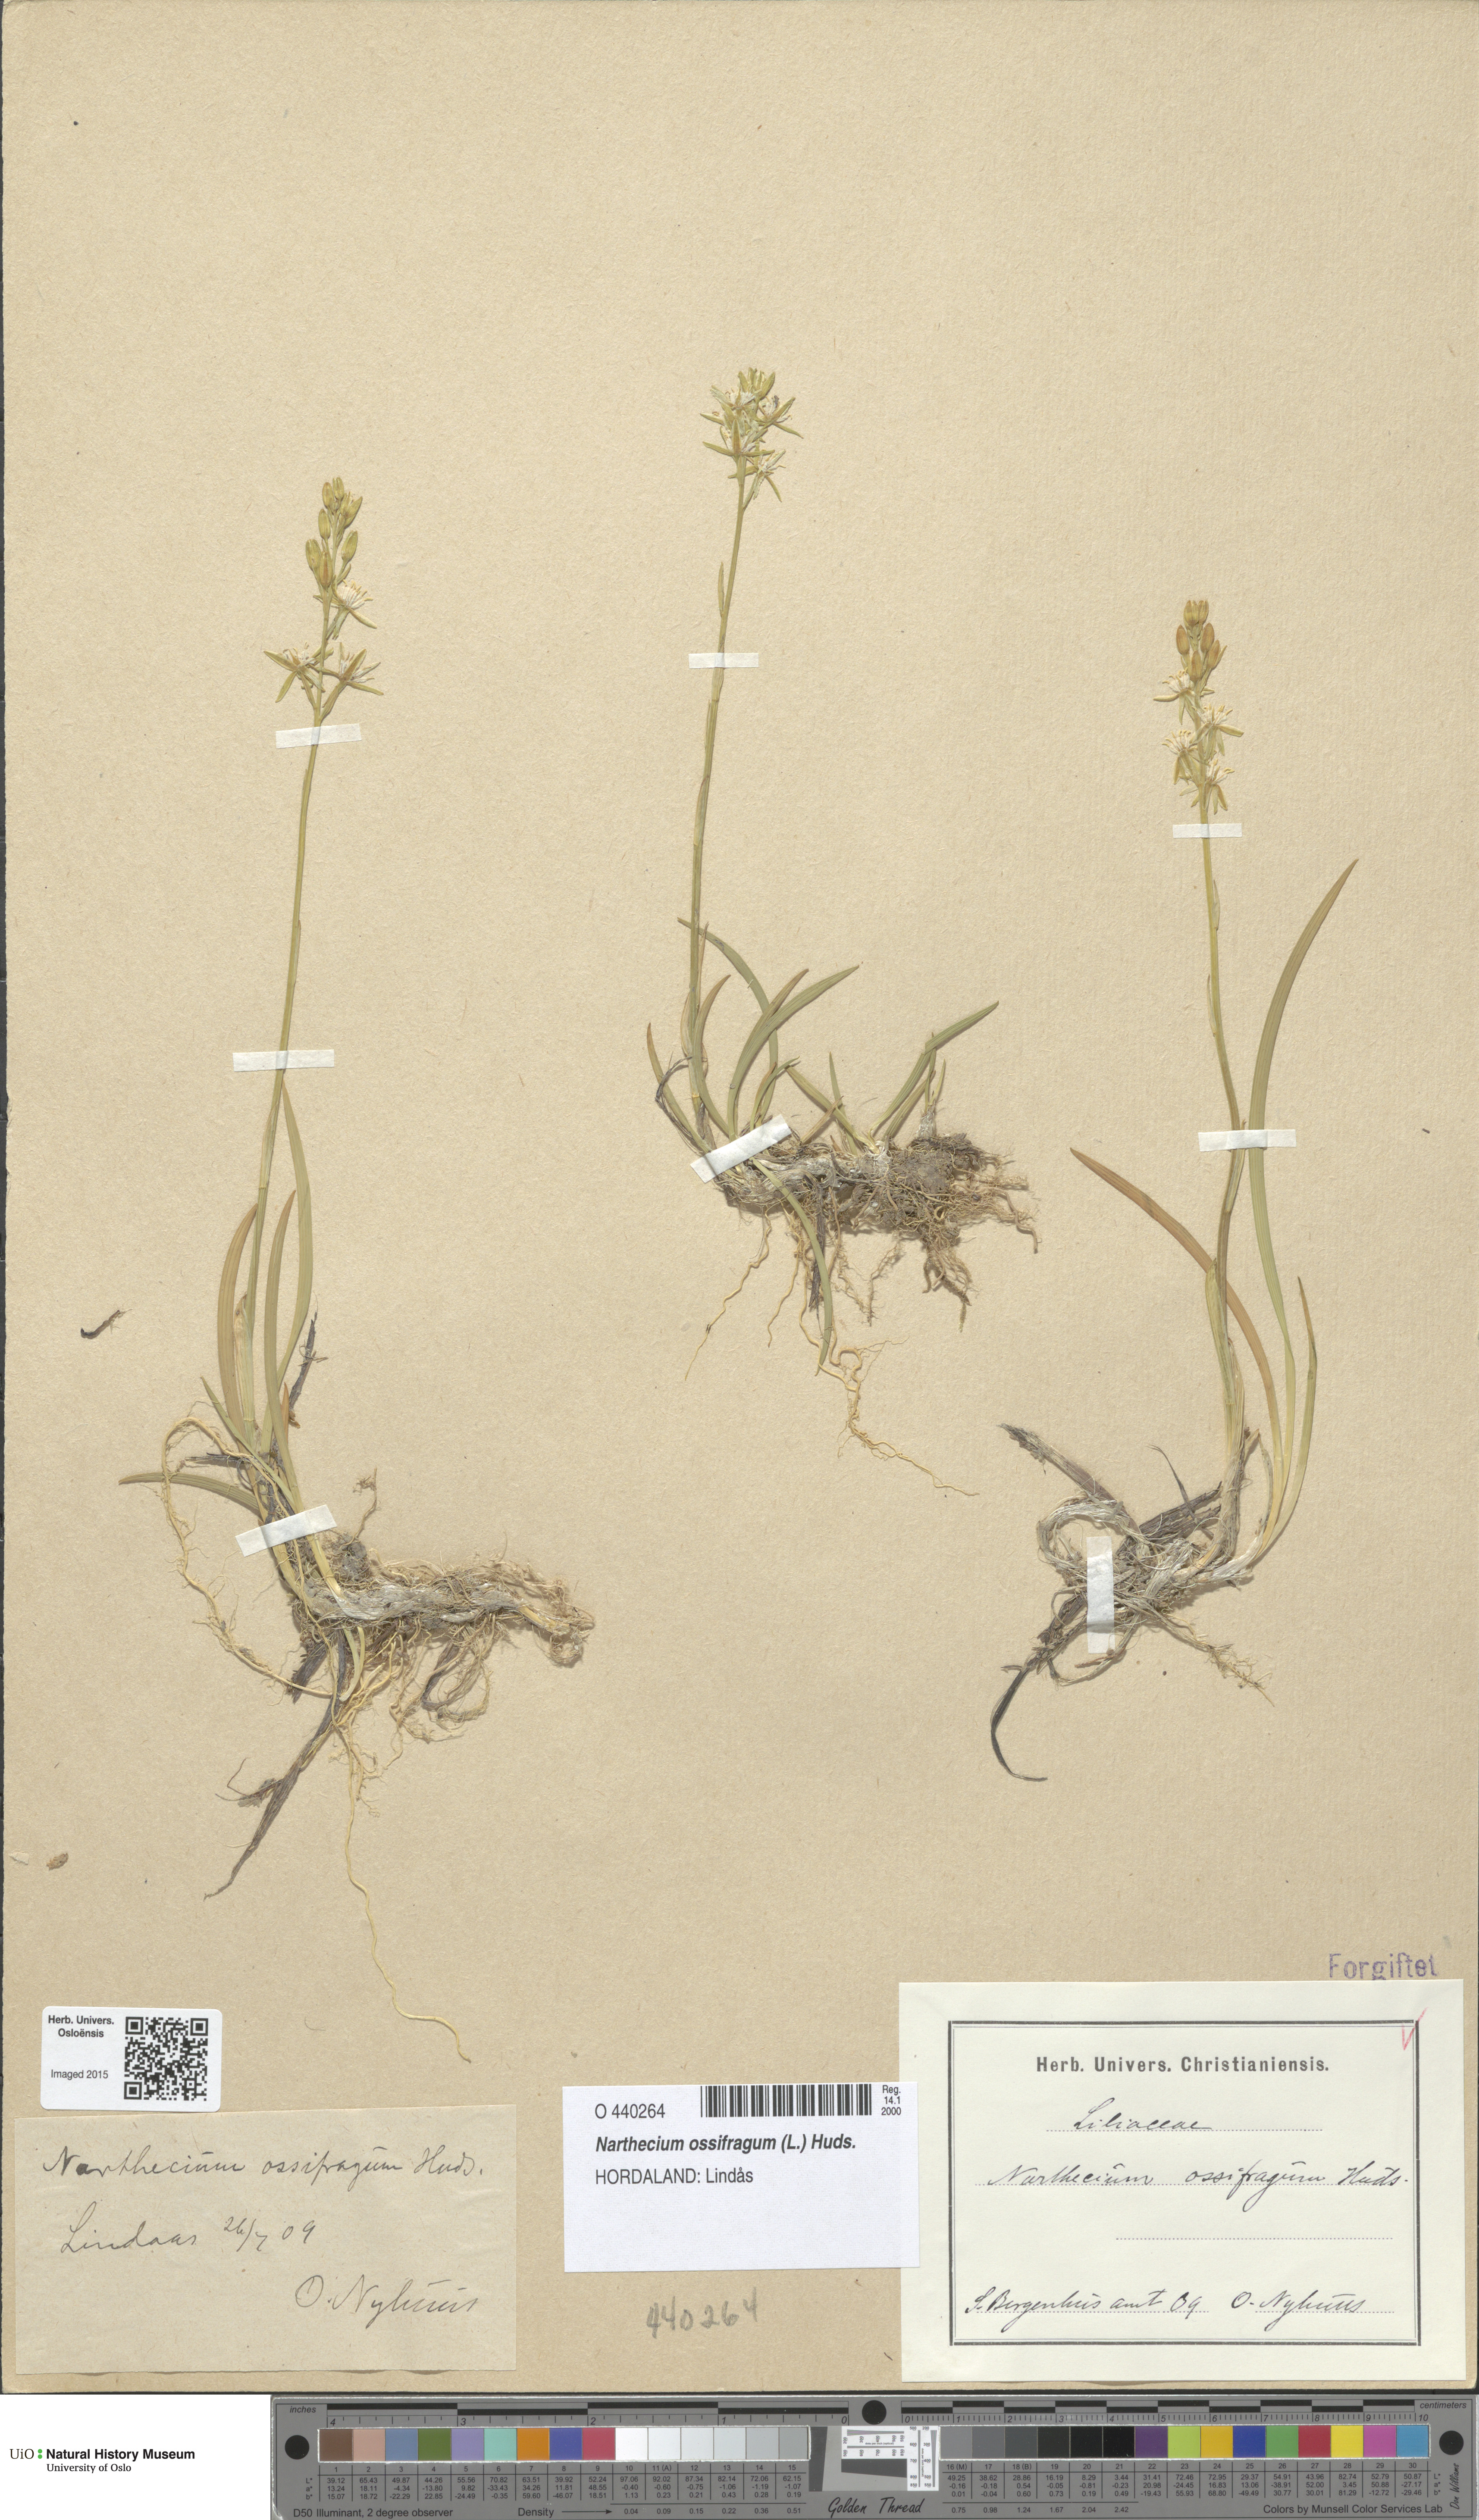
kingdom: Plantae
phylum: Tracheophyta
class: Liliopsida
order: Dioscoreales
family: Nartheciaceae
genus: Narthecium
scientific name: Narthecium ossifragum
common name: Bog asphodel
